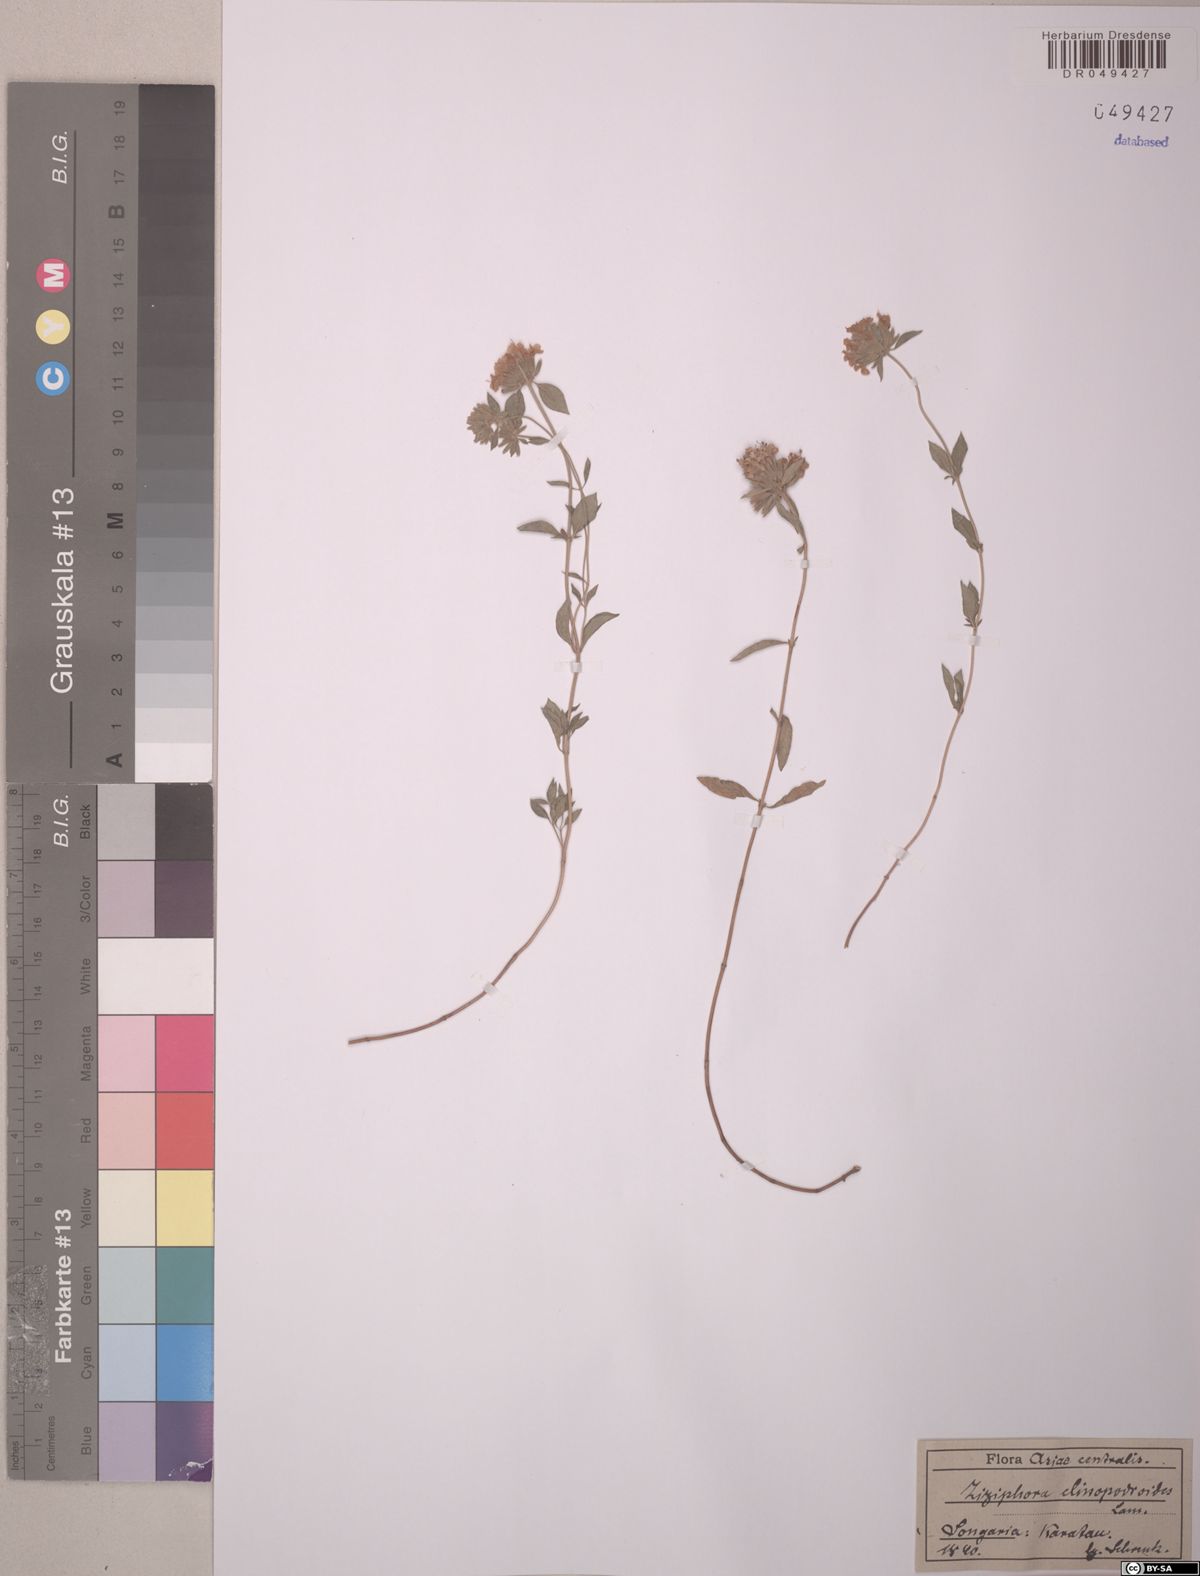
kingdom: Plantae
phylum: Tracheophyta
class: Magnoliopsida
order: Lamiales
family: Lamiaceae
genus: Ziziphora
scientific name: Ziziphora clinopodioides
